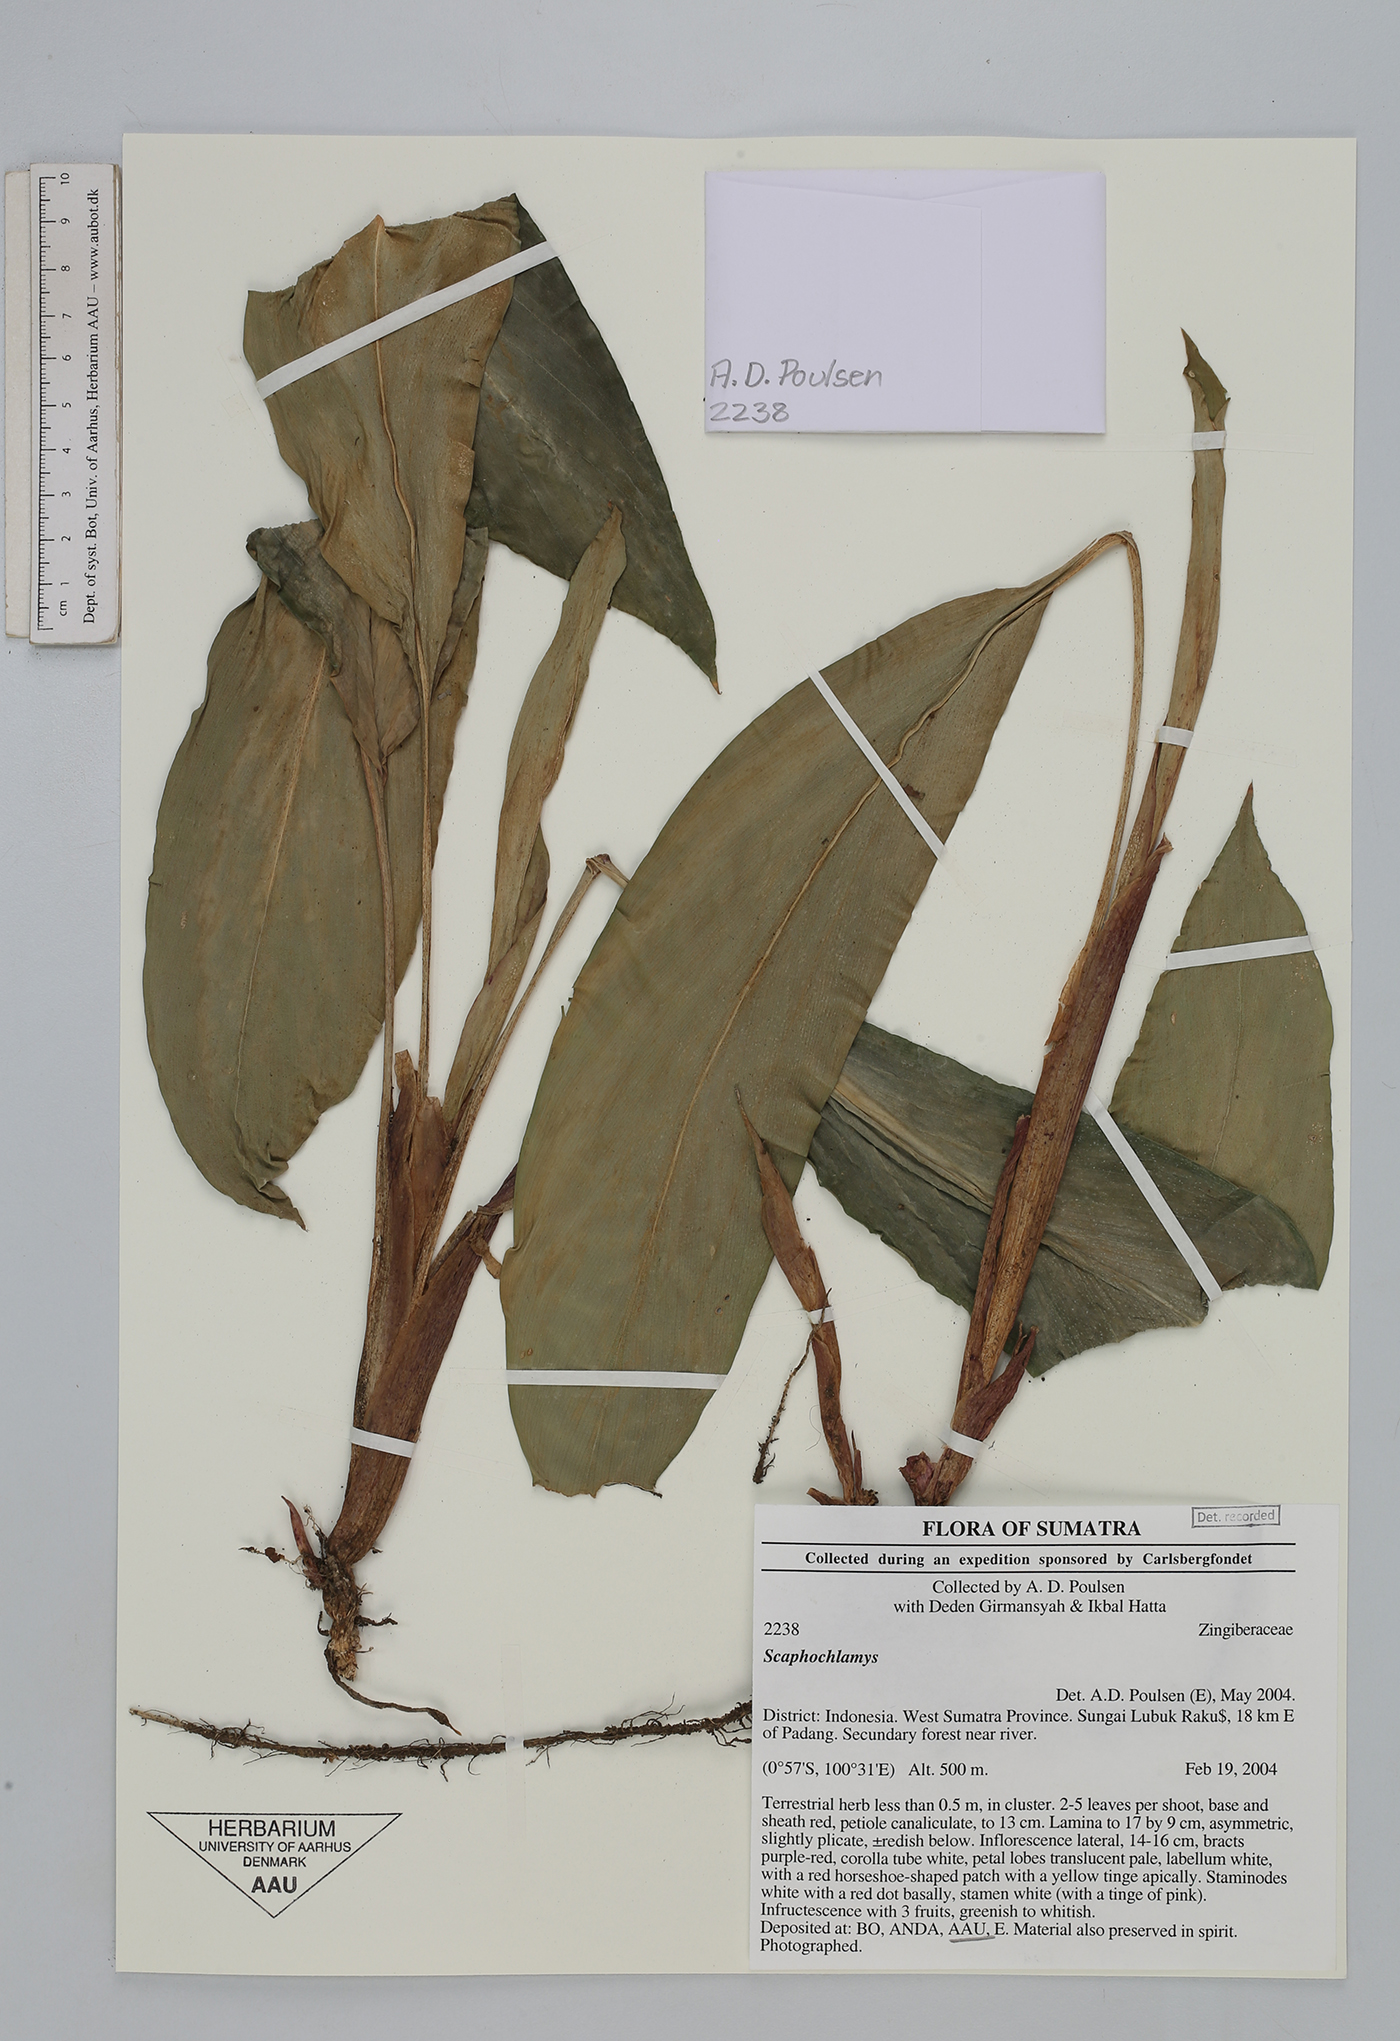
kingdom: Plantae
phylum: Tracheophyta
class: Liliopsida
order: Zingiberales
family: Zingiberaceae
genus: Scaphochlamys
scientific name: Scaphochlamys
